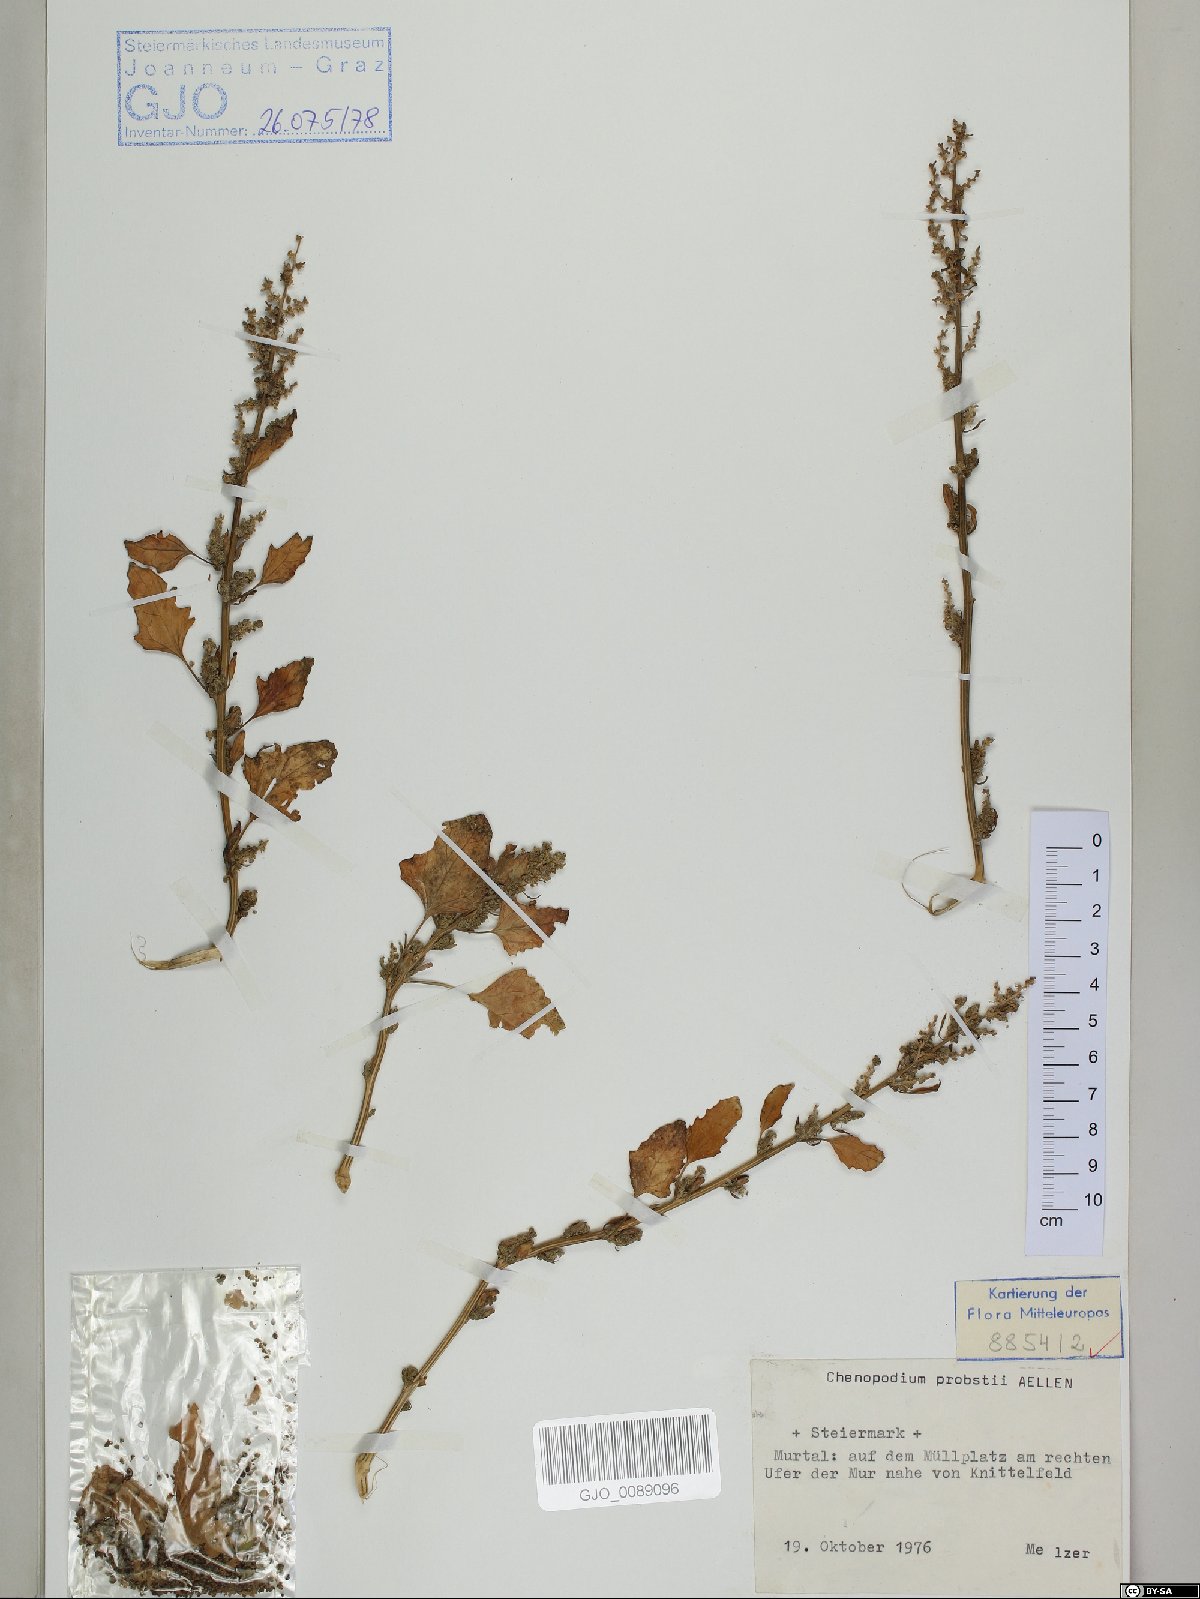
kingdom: Plantae
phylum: Tracheophyta
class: Magnoliopsida
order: Caryophyllales
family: Amaranthaceae
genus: Chenopodium
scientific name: Chenopodium probstii
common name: Probst's goosefoot
